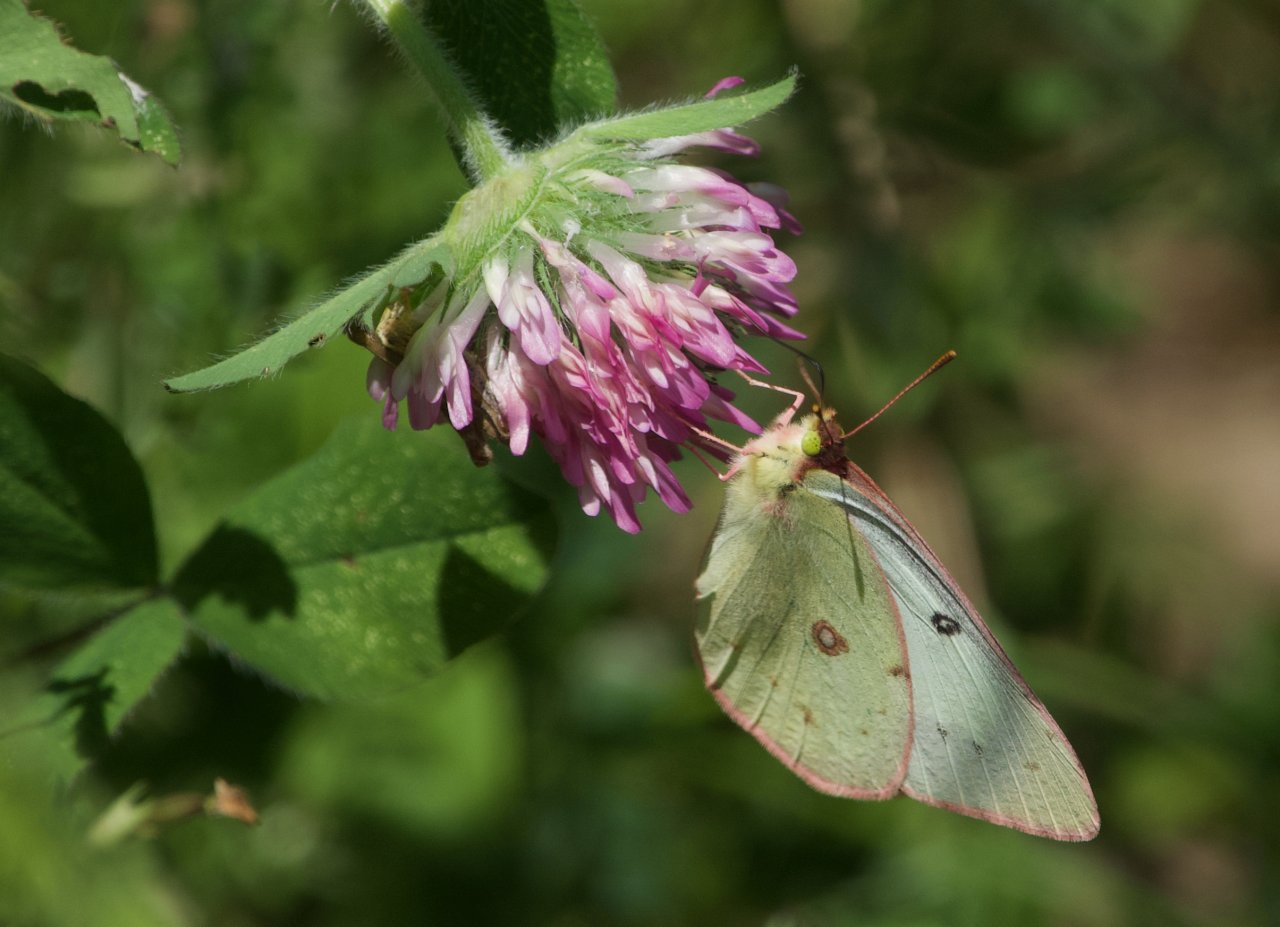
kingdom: Animalia
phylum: Arthropoda
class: Insecta
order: Lepidoptera
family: Pieridae
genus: Colias
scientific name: Colias eurytheme
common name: Orange Sulphur
